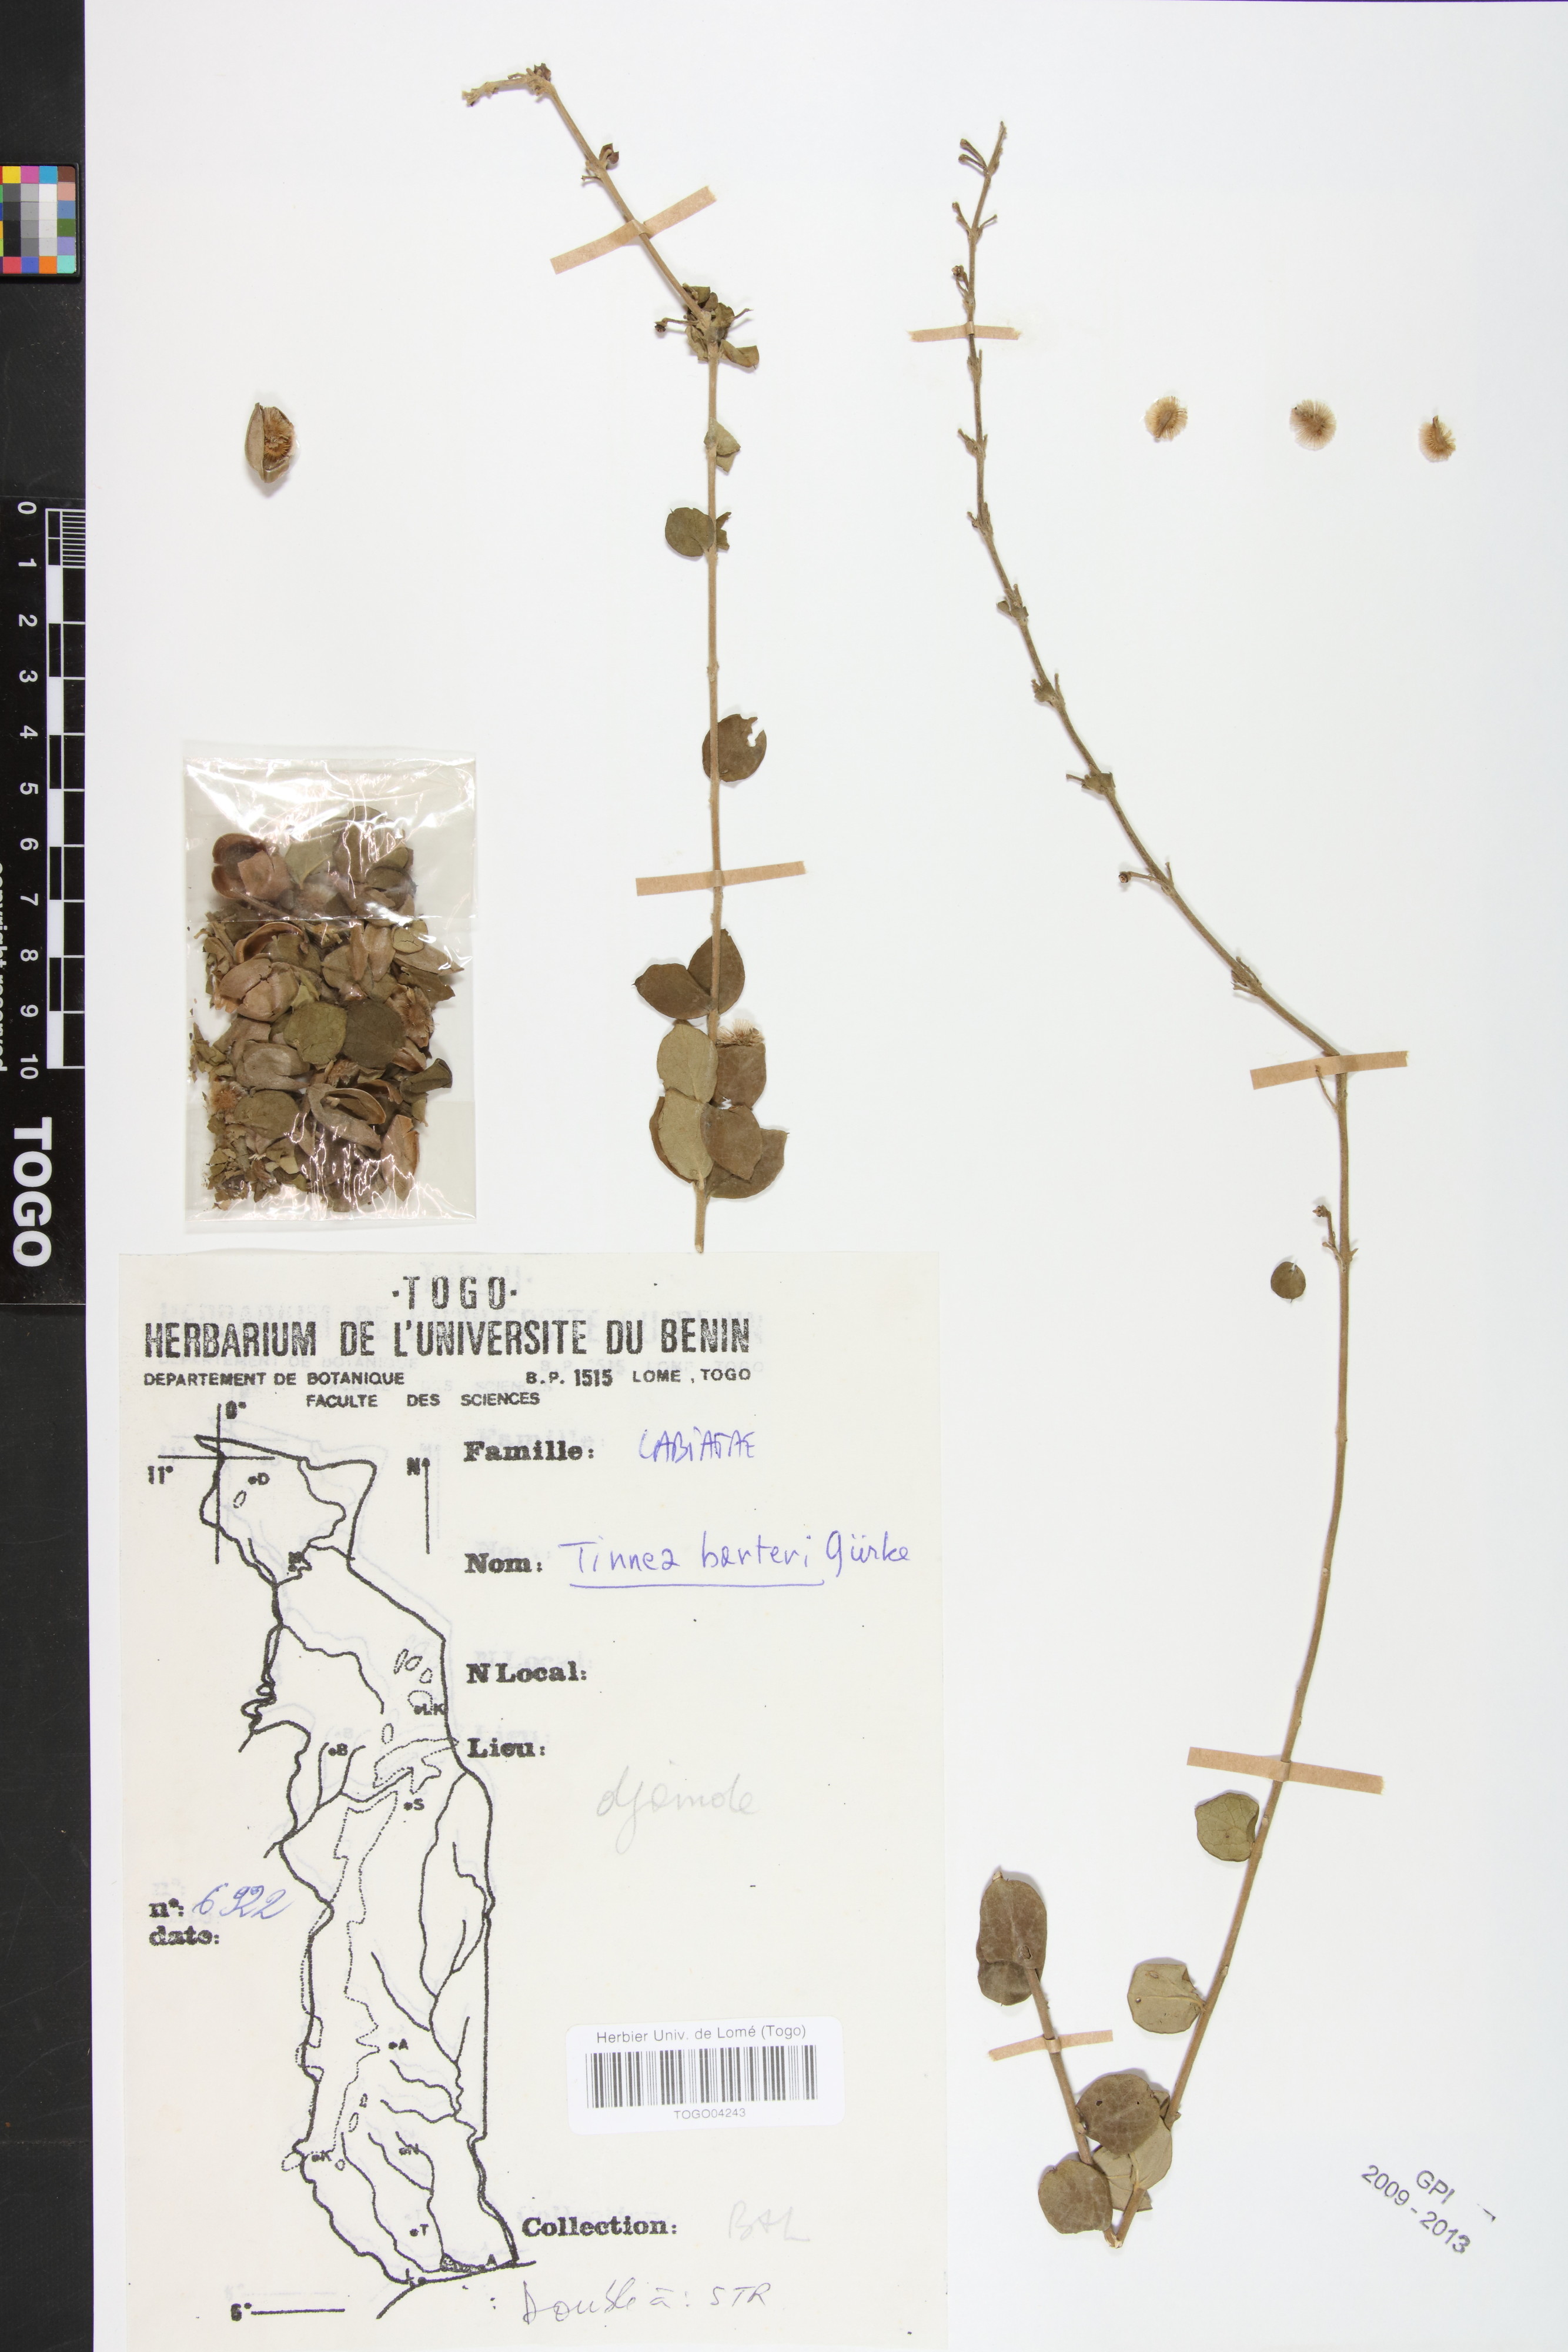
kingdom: Plantae
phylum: Tracheophyta
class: Magnoliopsida
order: Lamiales
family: Lamiaceae
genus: Tinnea
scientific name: Tinnea barteri
